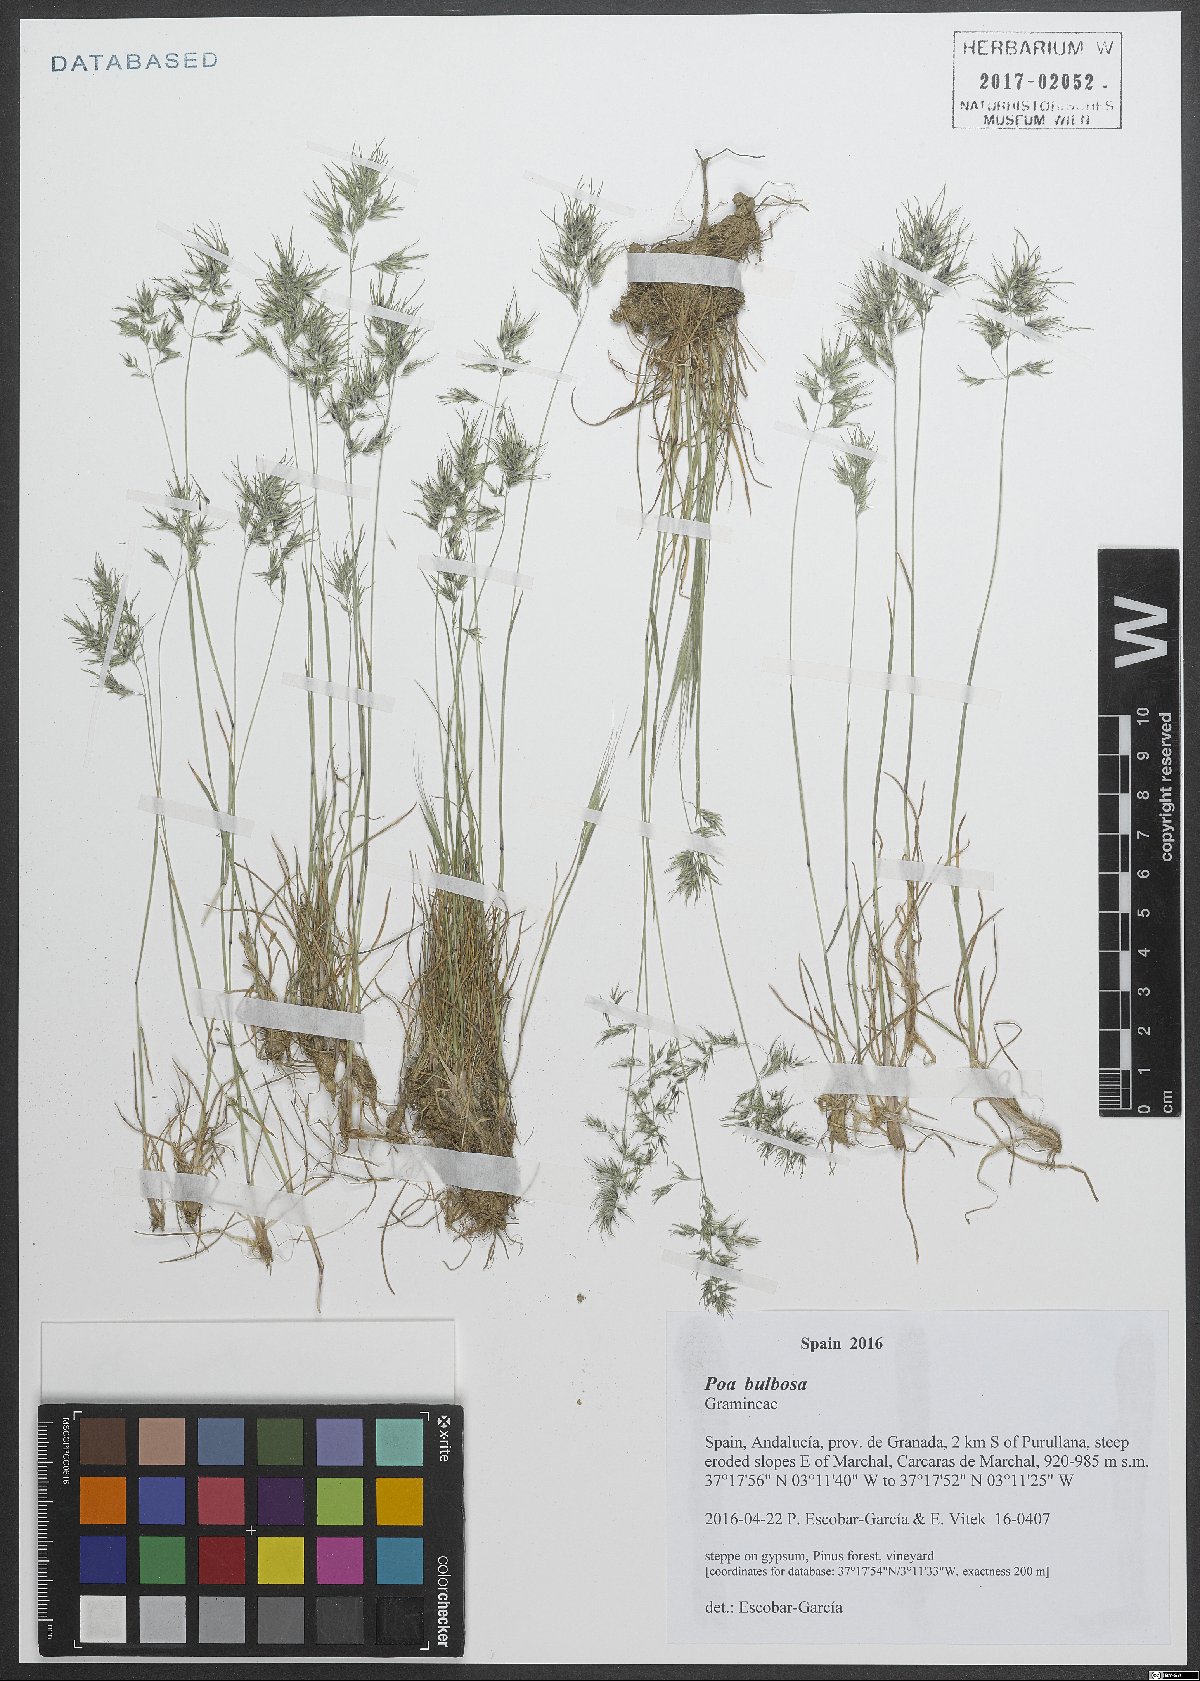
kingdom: Plantae
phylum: Tracheophyta
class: Liliopsida
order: Poales
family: Poaceae
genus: Poa
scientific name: Poa bulbosa
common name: Bulbous bluegrass
